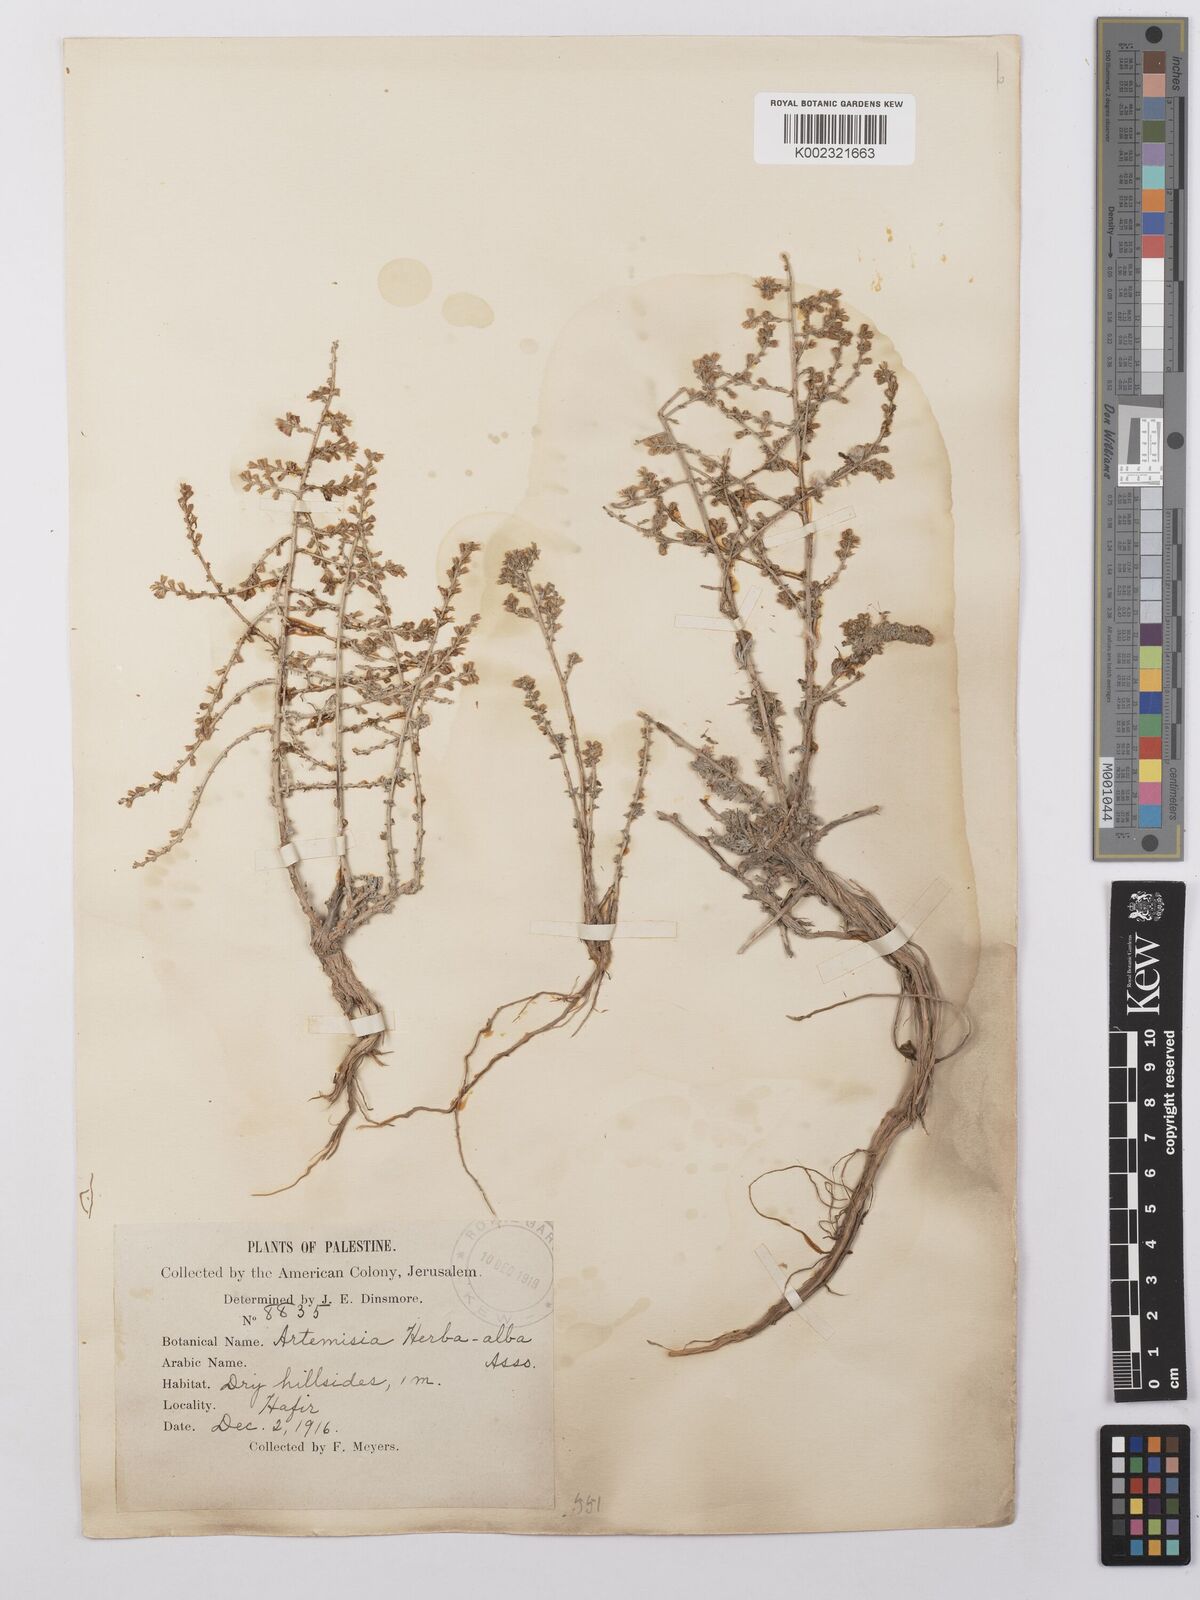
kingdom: Plantae
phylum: Tracheophyta
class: Magnoliopsida
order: Asterales
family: Asteraceae
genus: Artemisia
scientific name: Artemisia herba-alba
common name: White wormwood
